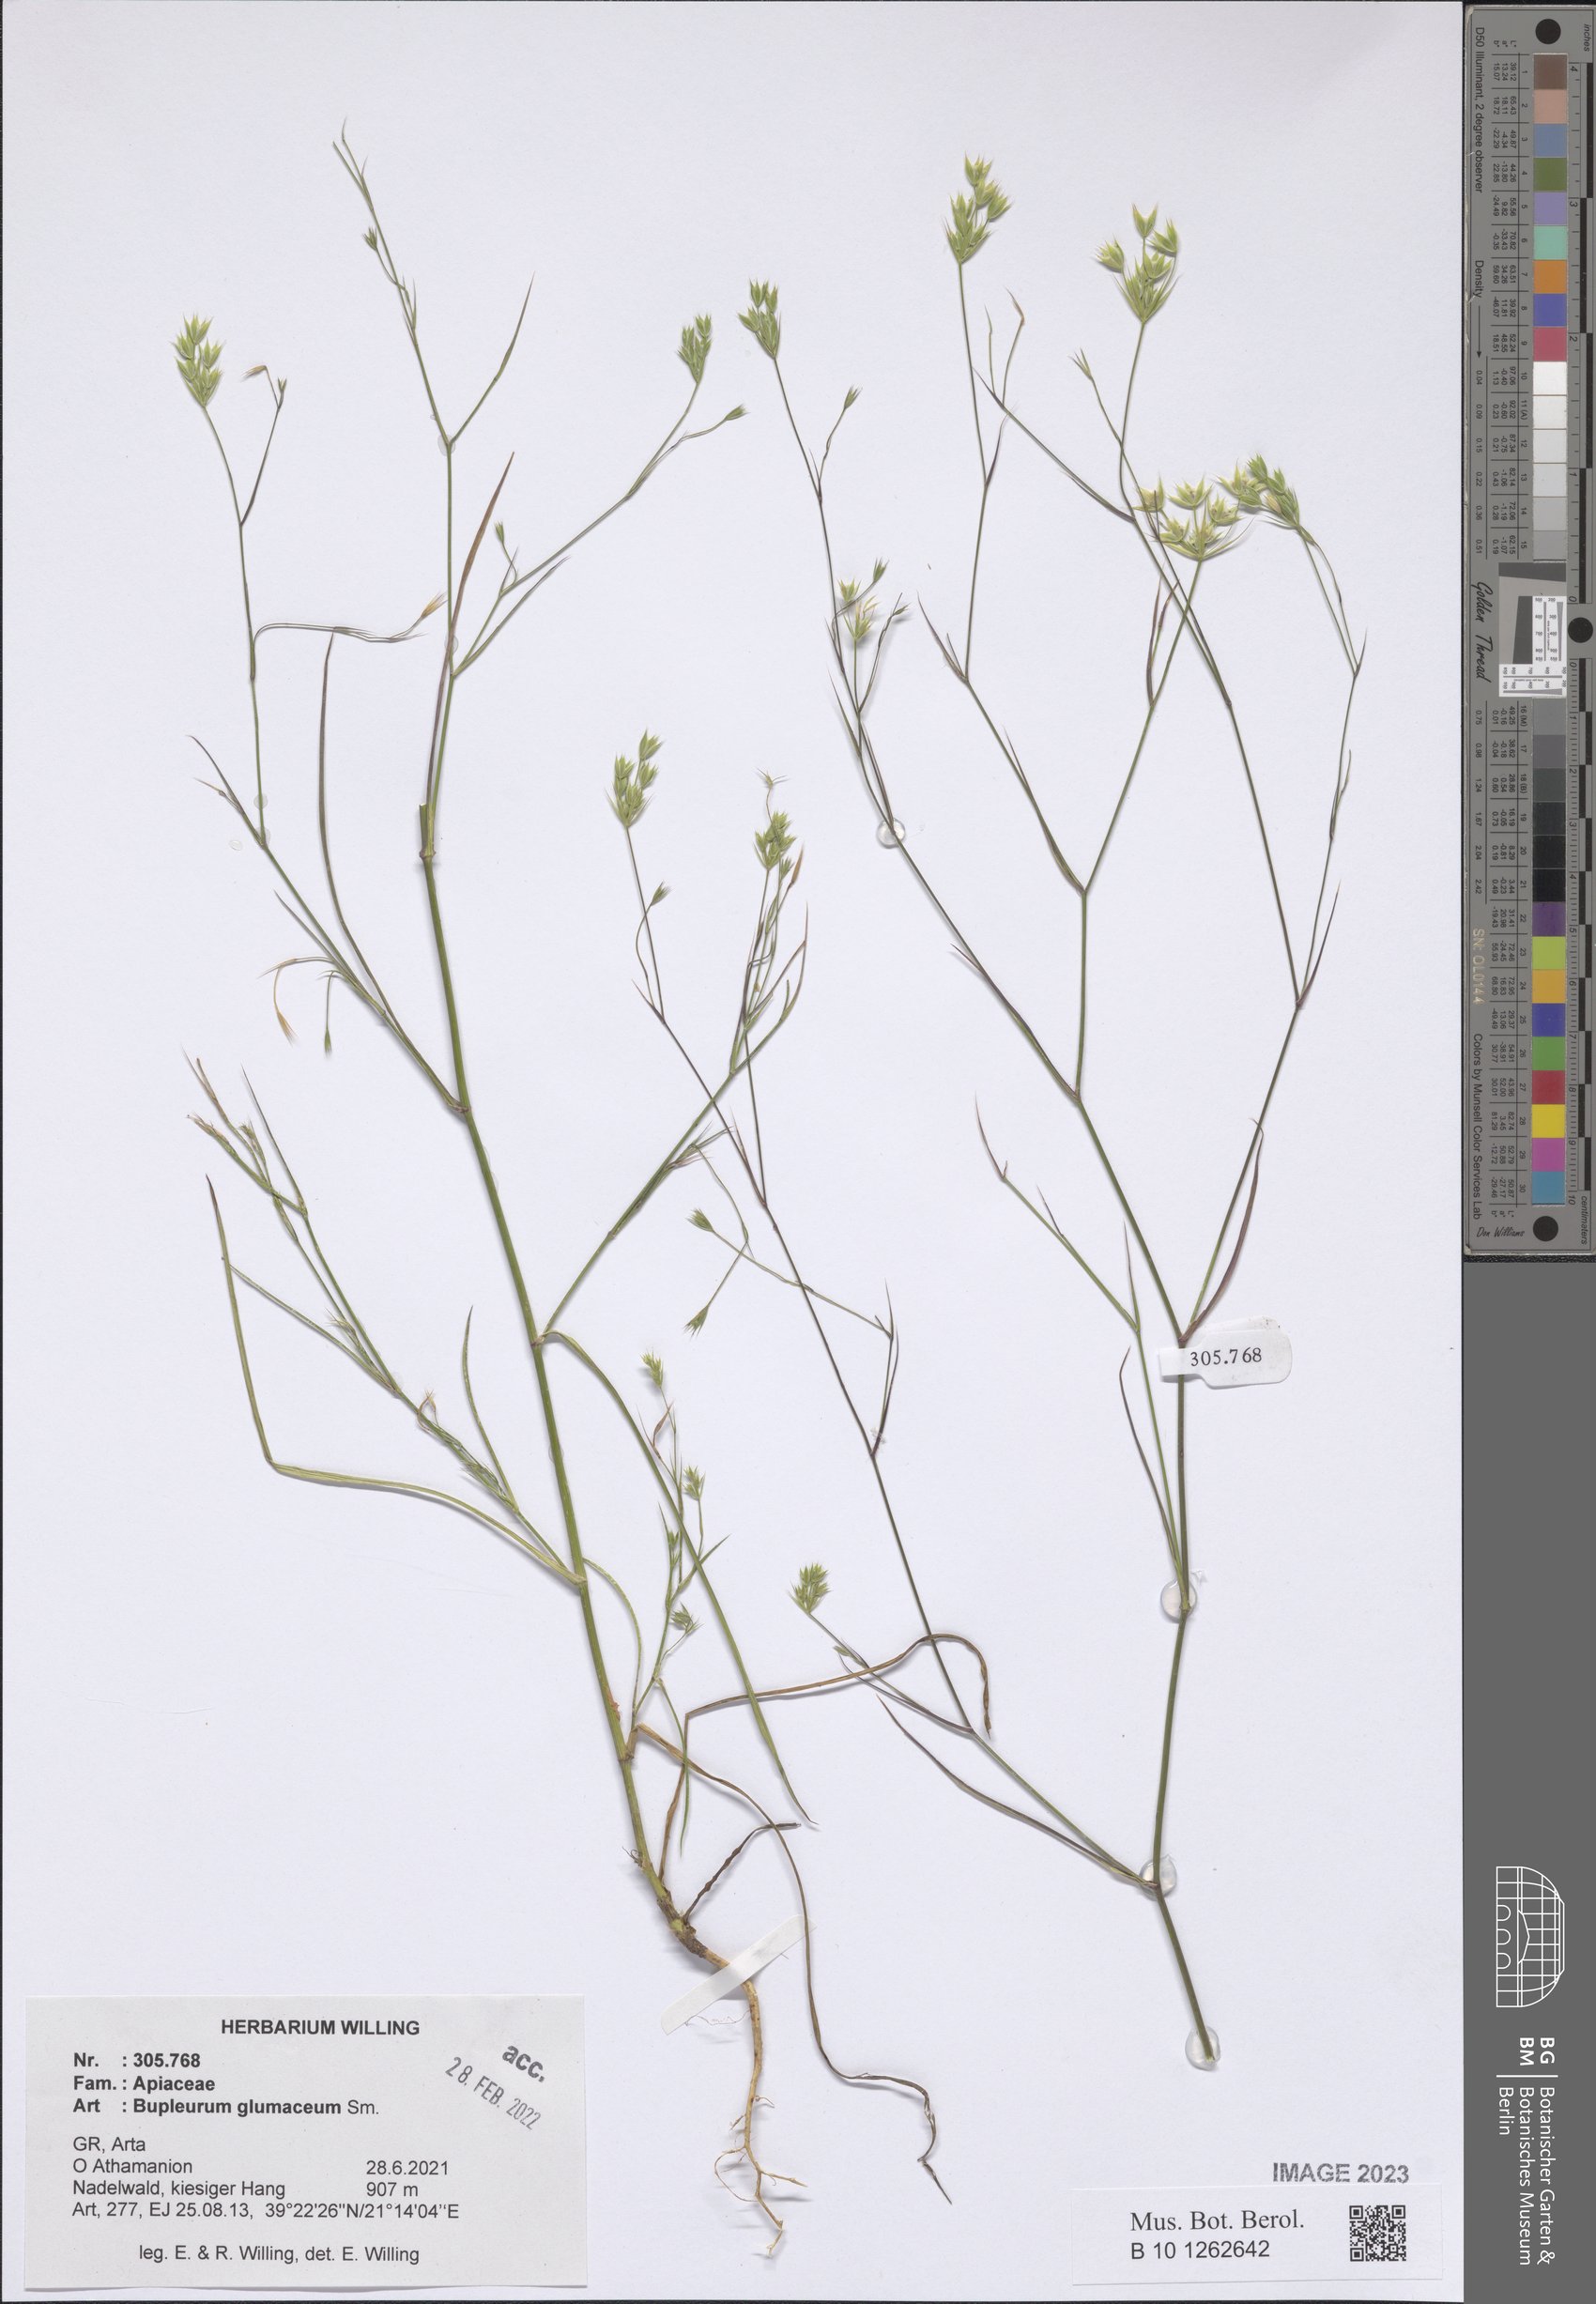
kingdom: Plantae
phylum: Tracheophyta
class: Magnoliopsida
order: Apiales
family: Apiaceae
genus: Bupleurum
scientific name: Bupleurum glumaceum
